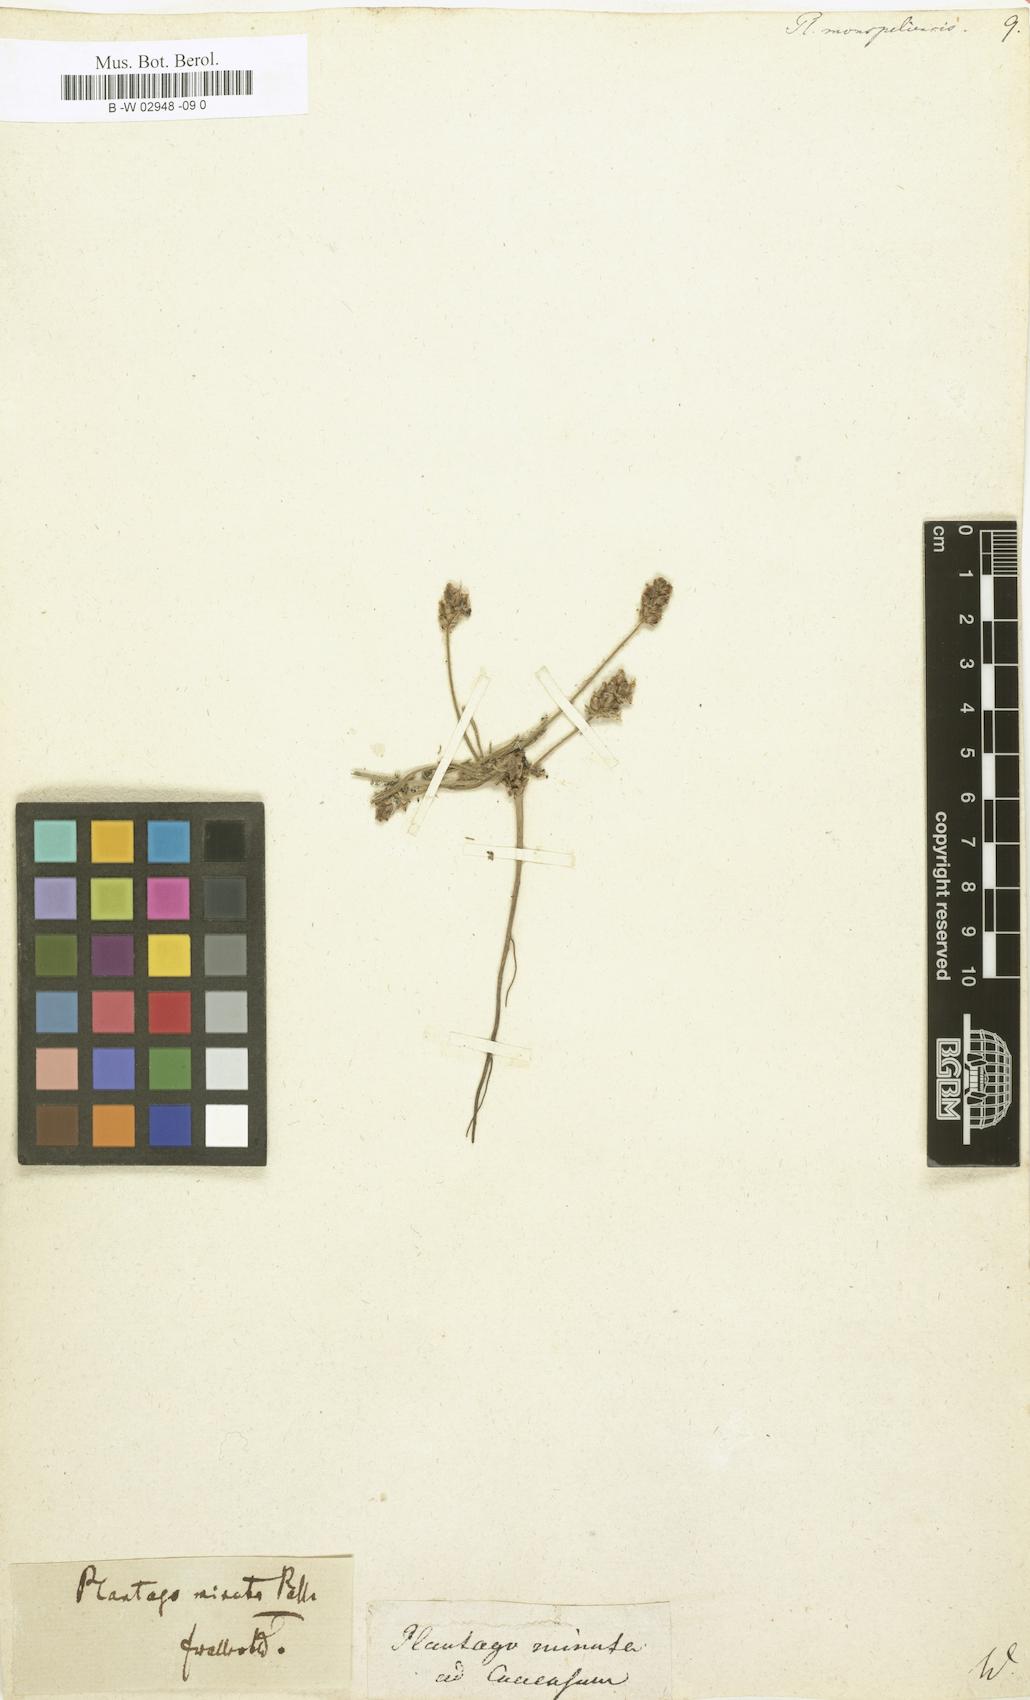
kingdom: Plantae
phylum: Tracheophyta
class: Magnoliopsida
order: Lamiales
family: Plantaginaceae
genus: Plantago
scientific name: Plantago ovata
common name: Blond plantain
